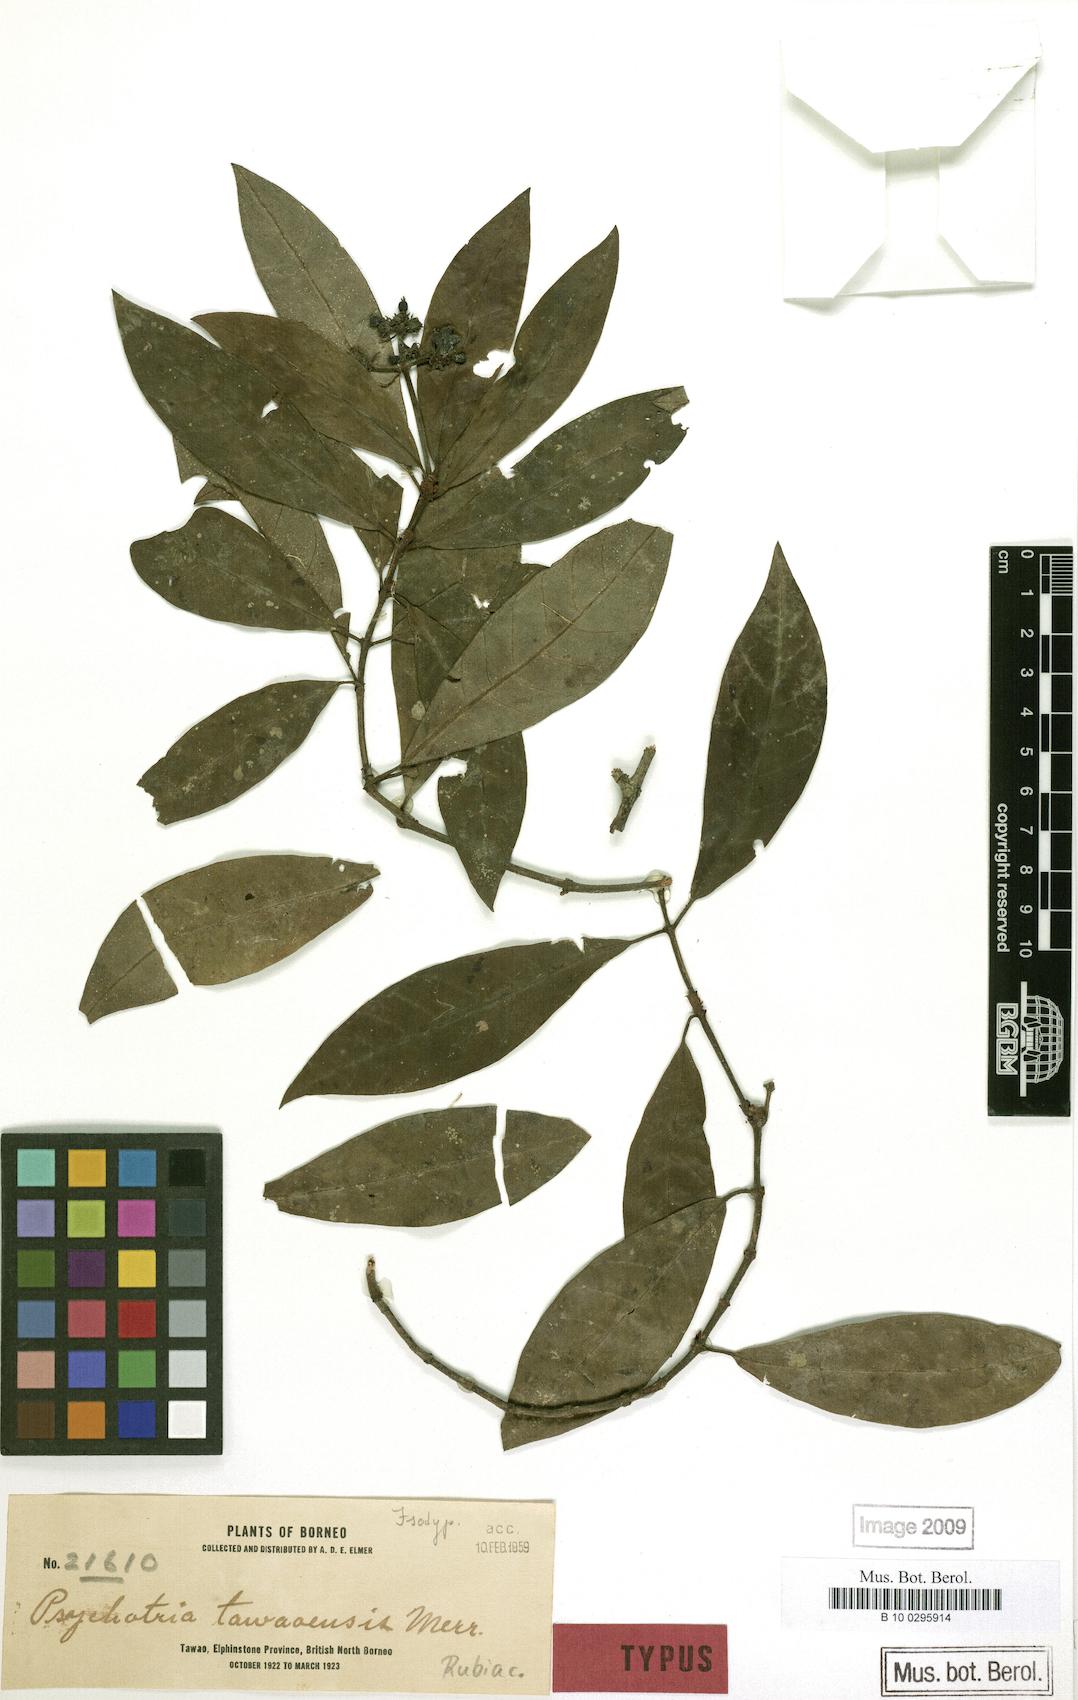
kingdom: Plantae
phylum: Tracheophyta
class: Magnoliopsida
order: Gentianales
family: Rubiaceae
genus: Psychotria
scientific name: Psychotria tawaensis
